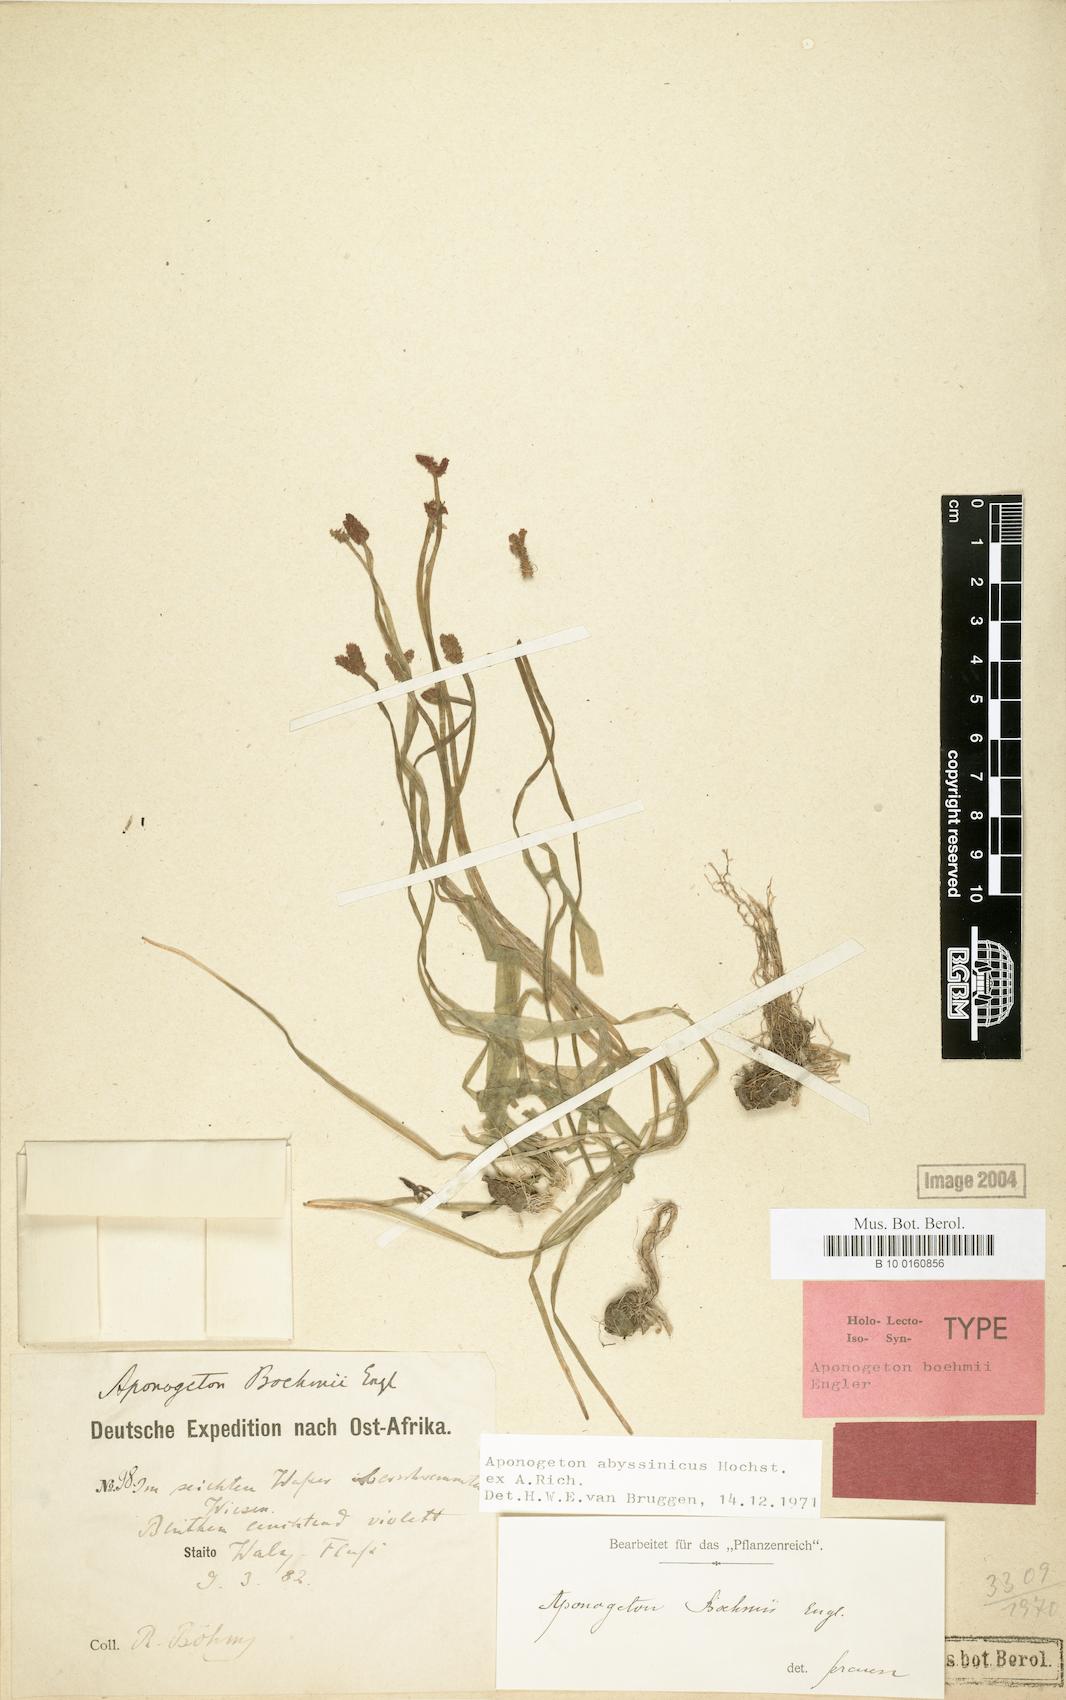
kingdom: Plantae
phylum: Tracheophyta
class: Liliopsida
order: Alismatales
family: Aponogetonaceae
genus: Aponogeton
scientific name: Aponogeton abyssinicus
